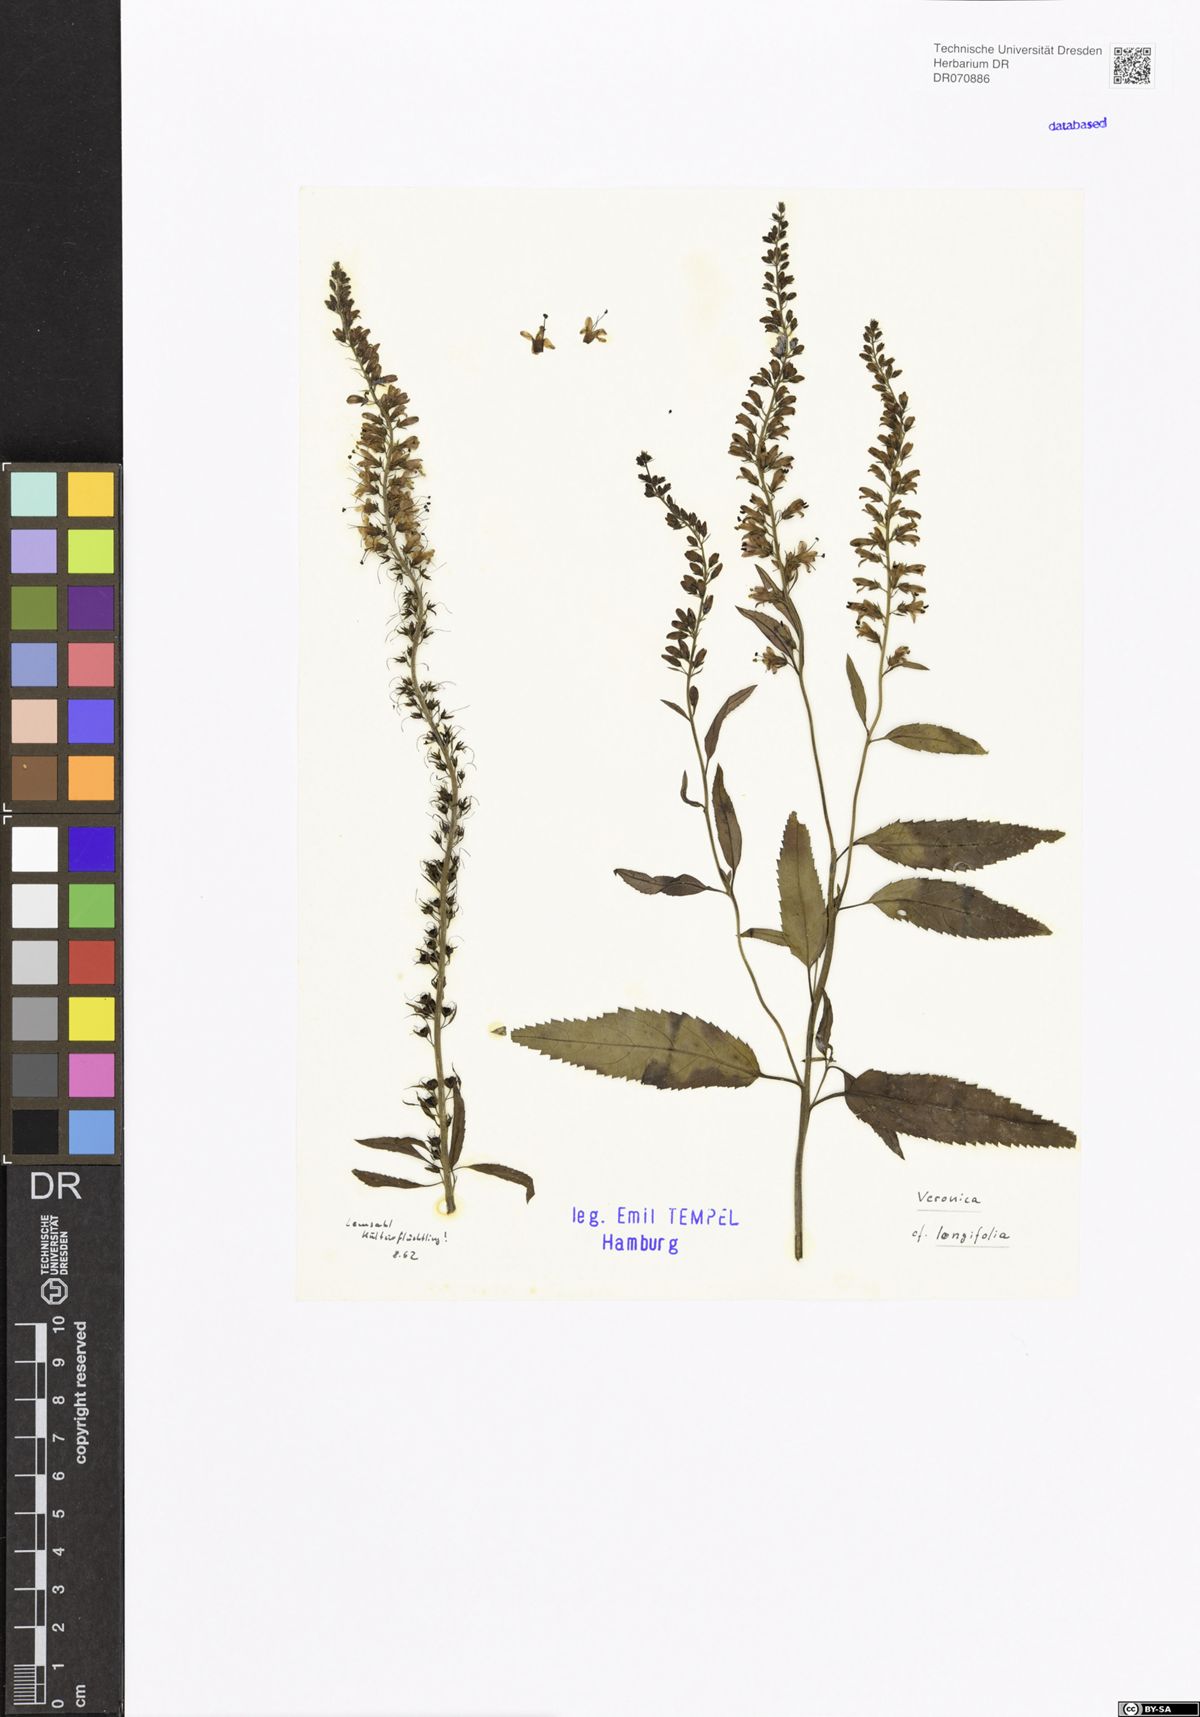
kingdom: Plantae
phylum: Tracheophyta
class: Magnoliopsida
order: Lamiales
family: Plantaginaceae
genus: Veronica
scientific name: Veronica longifolia
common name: Garden speedwell
